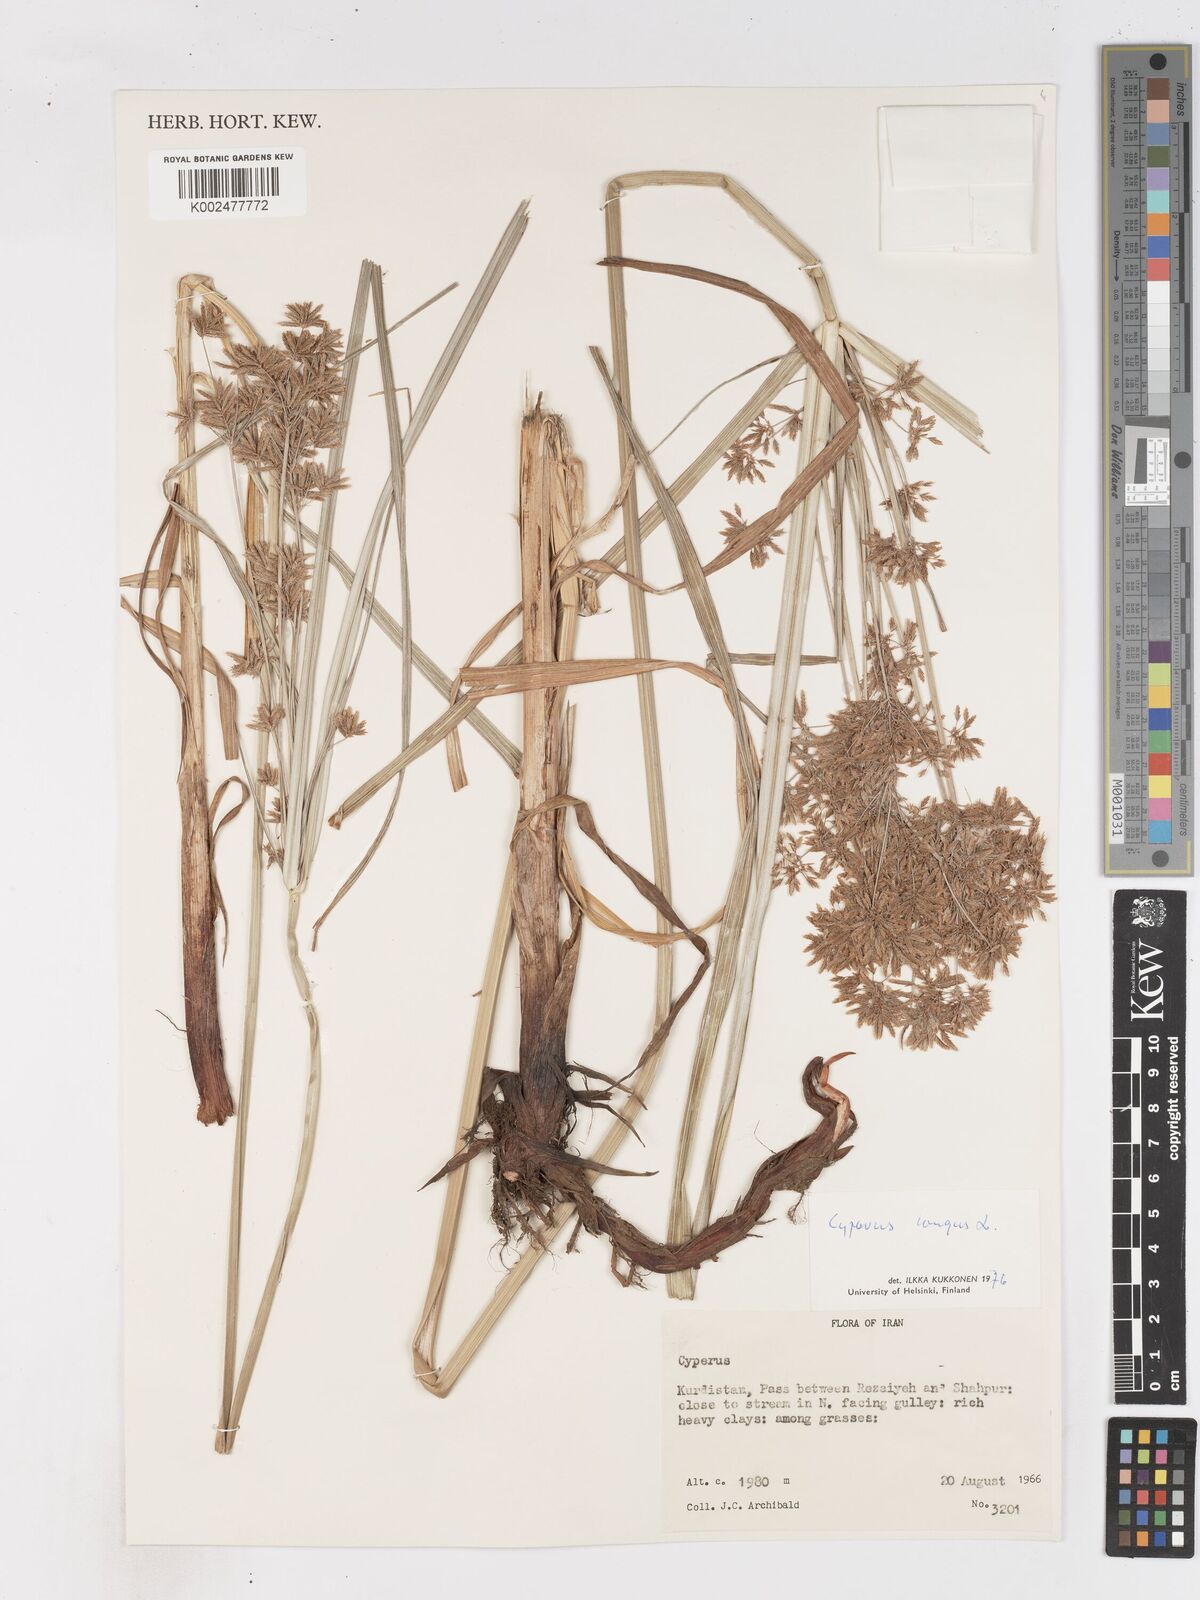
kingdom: Plantae
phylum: Tracheophyta
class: Liliopsida
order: Poales
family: Cyperaceae
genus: Cyperus
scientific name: Cyperus longus
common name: Galingale
